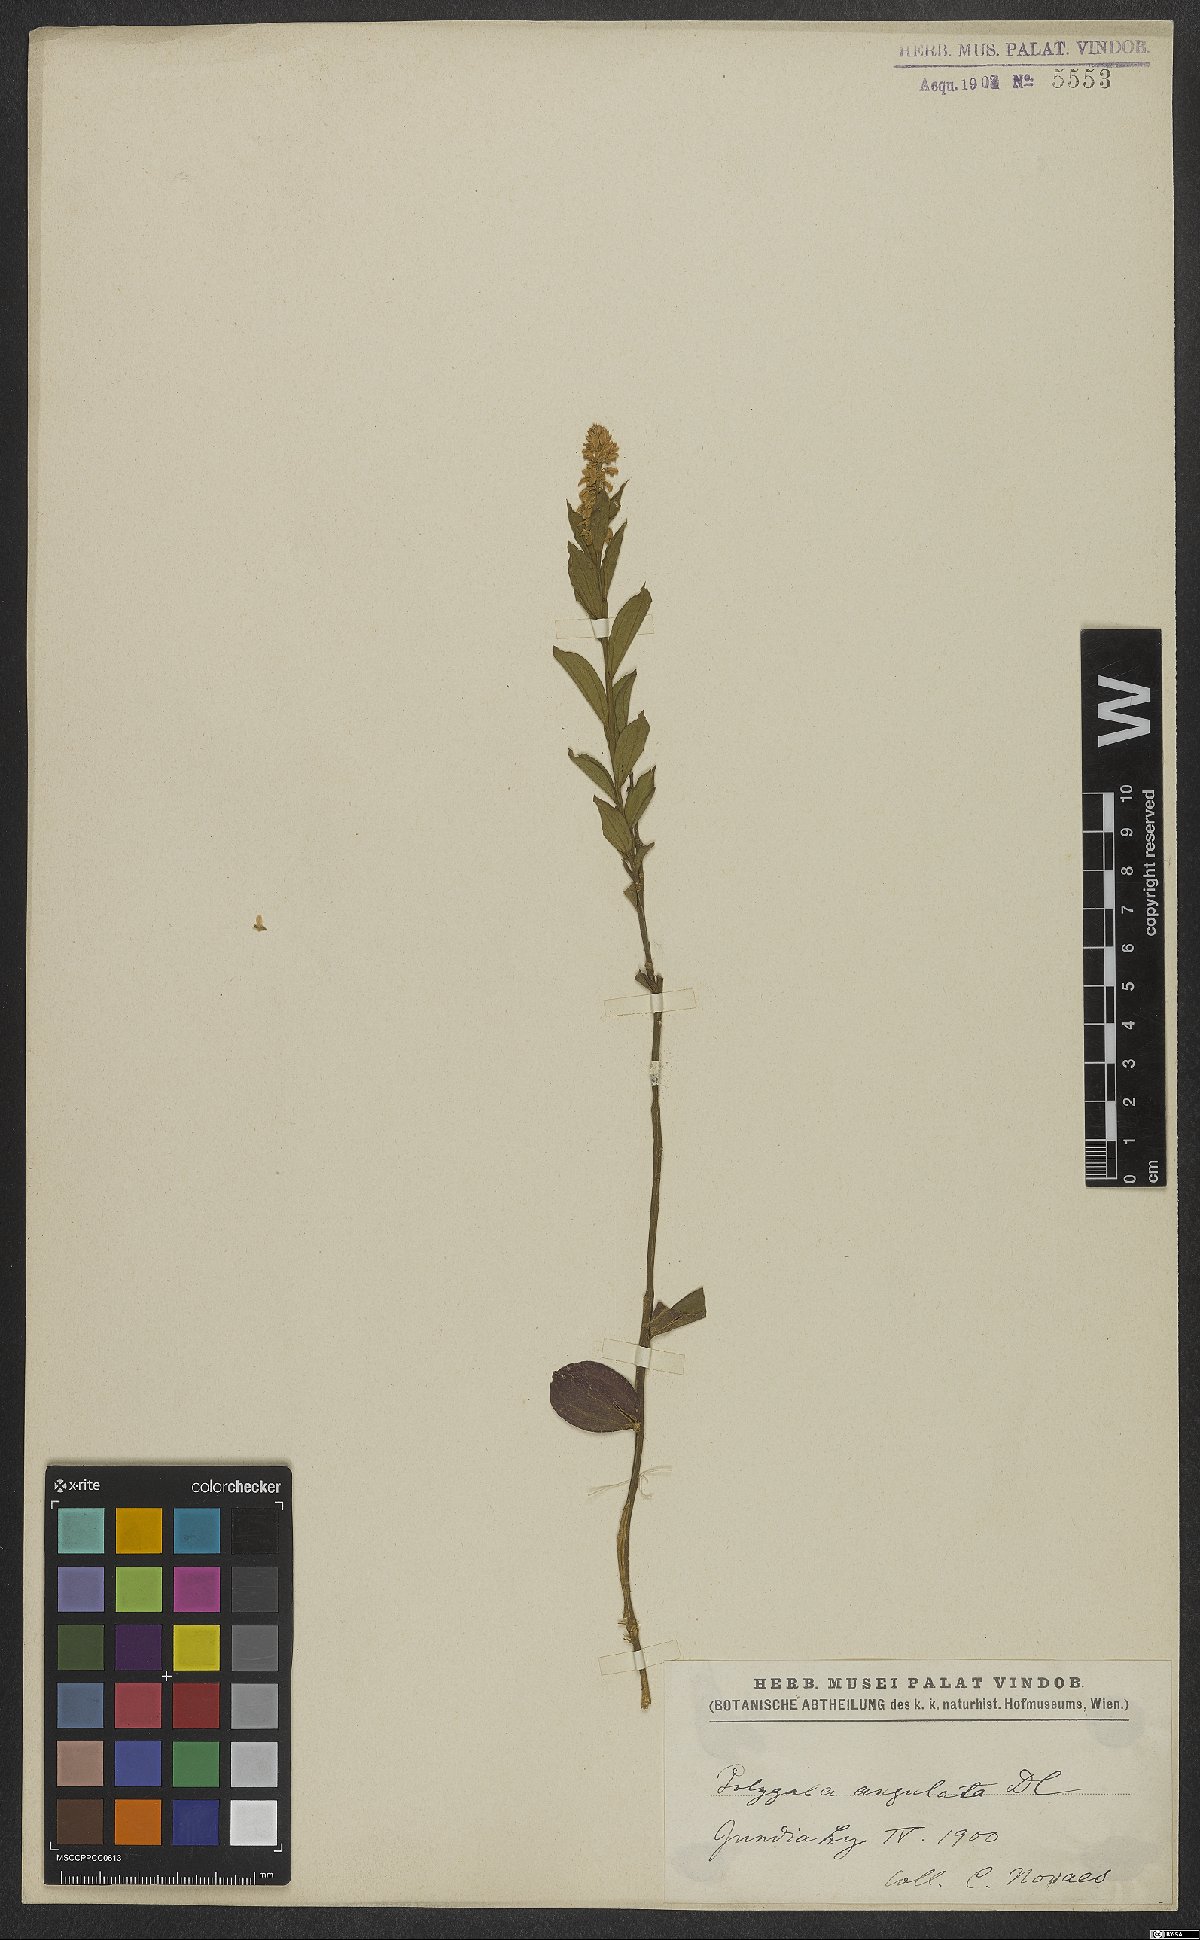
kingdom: Plantae
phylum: Tracheophyta
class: Magnoliopsida
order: Fabales
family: Polygalaceae
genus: Polygala
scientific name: Polygala poaya
